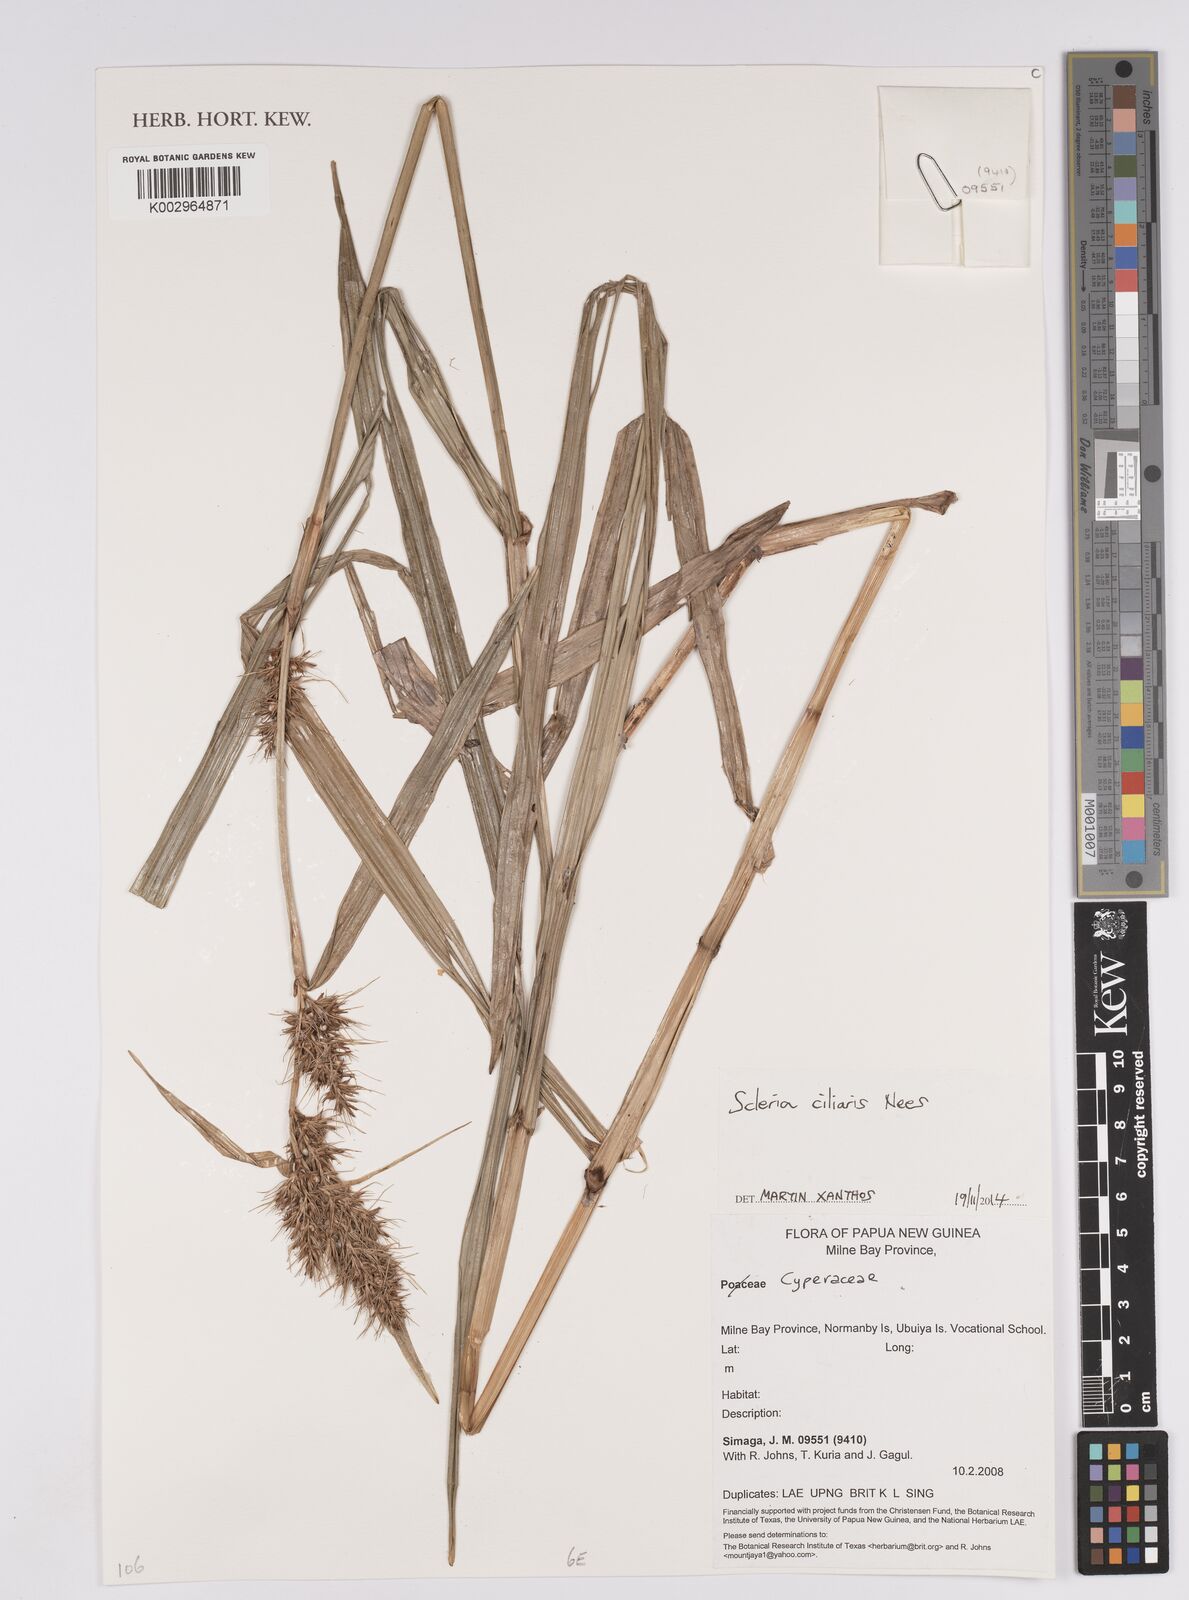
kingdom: Plantae
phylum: Tracheophyta
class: Liliopsida
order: Poales
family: Cyperaceae
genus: Scleria
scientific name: Scleria ciliaris
